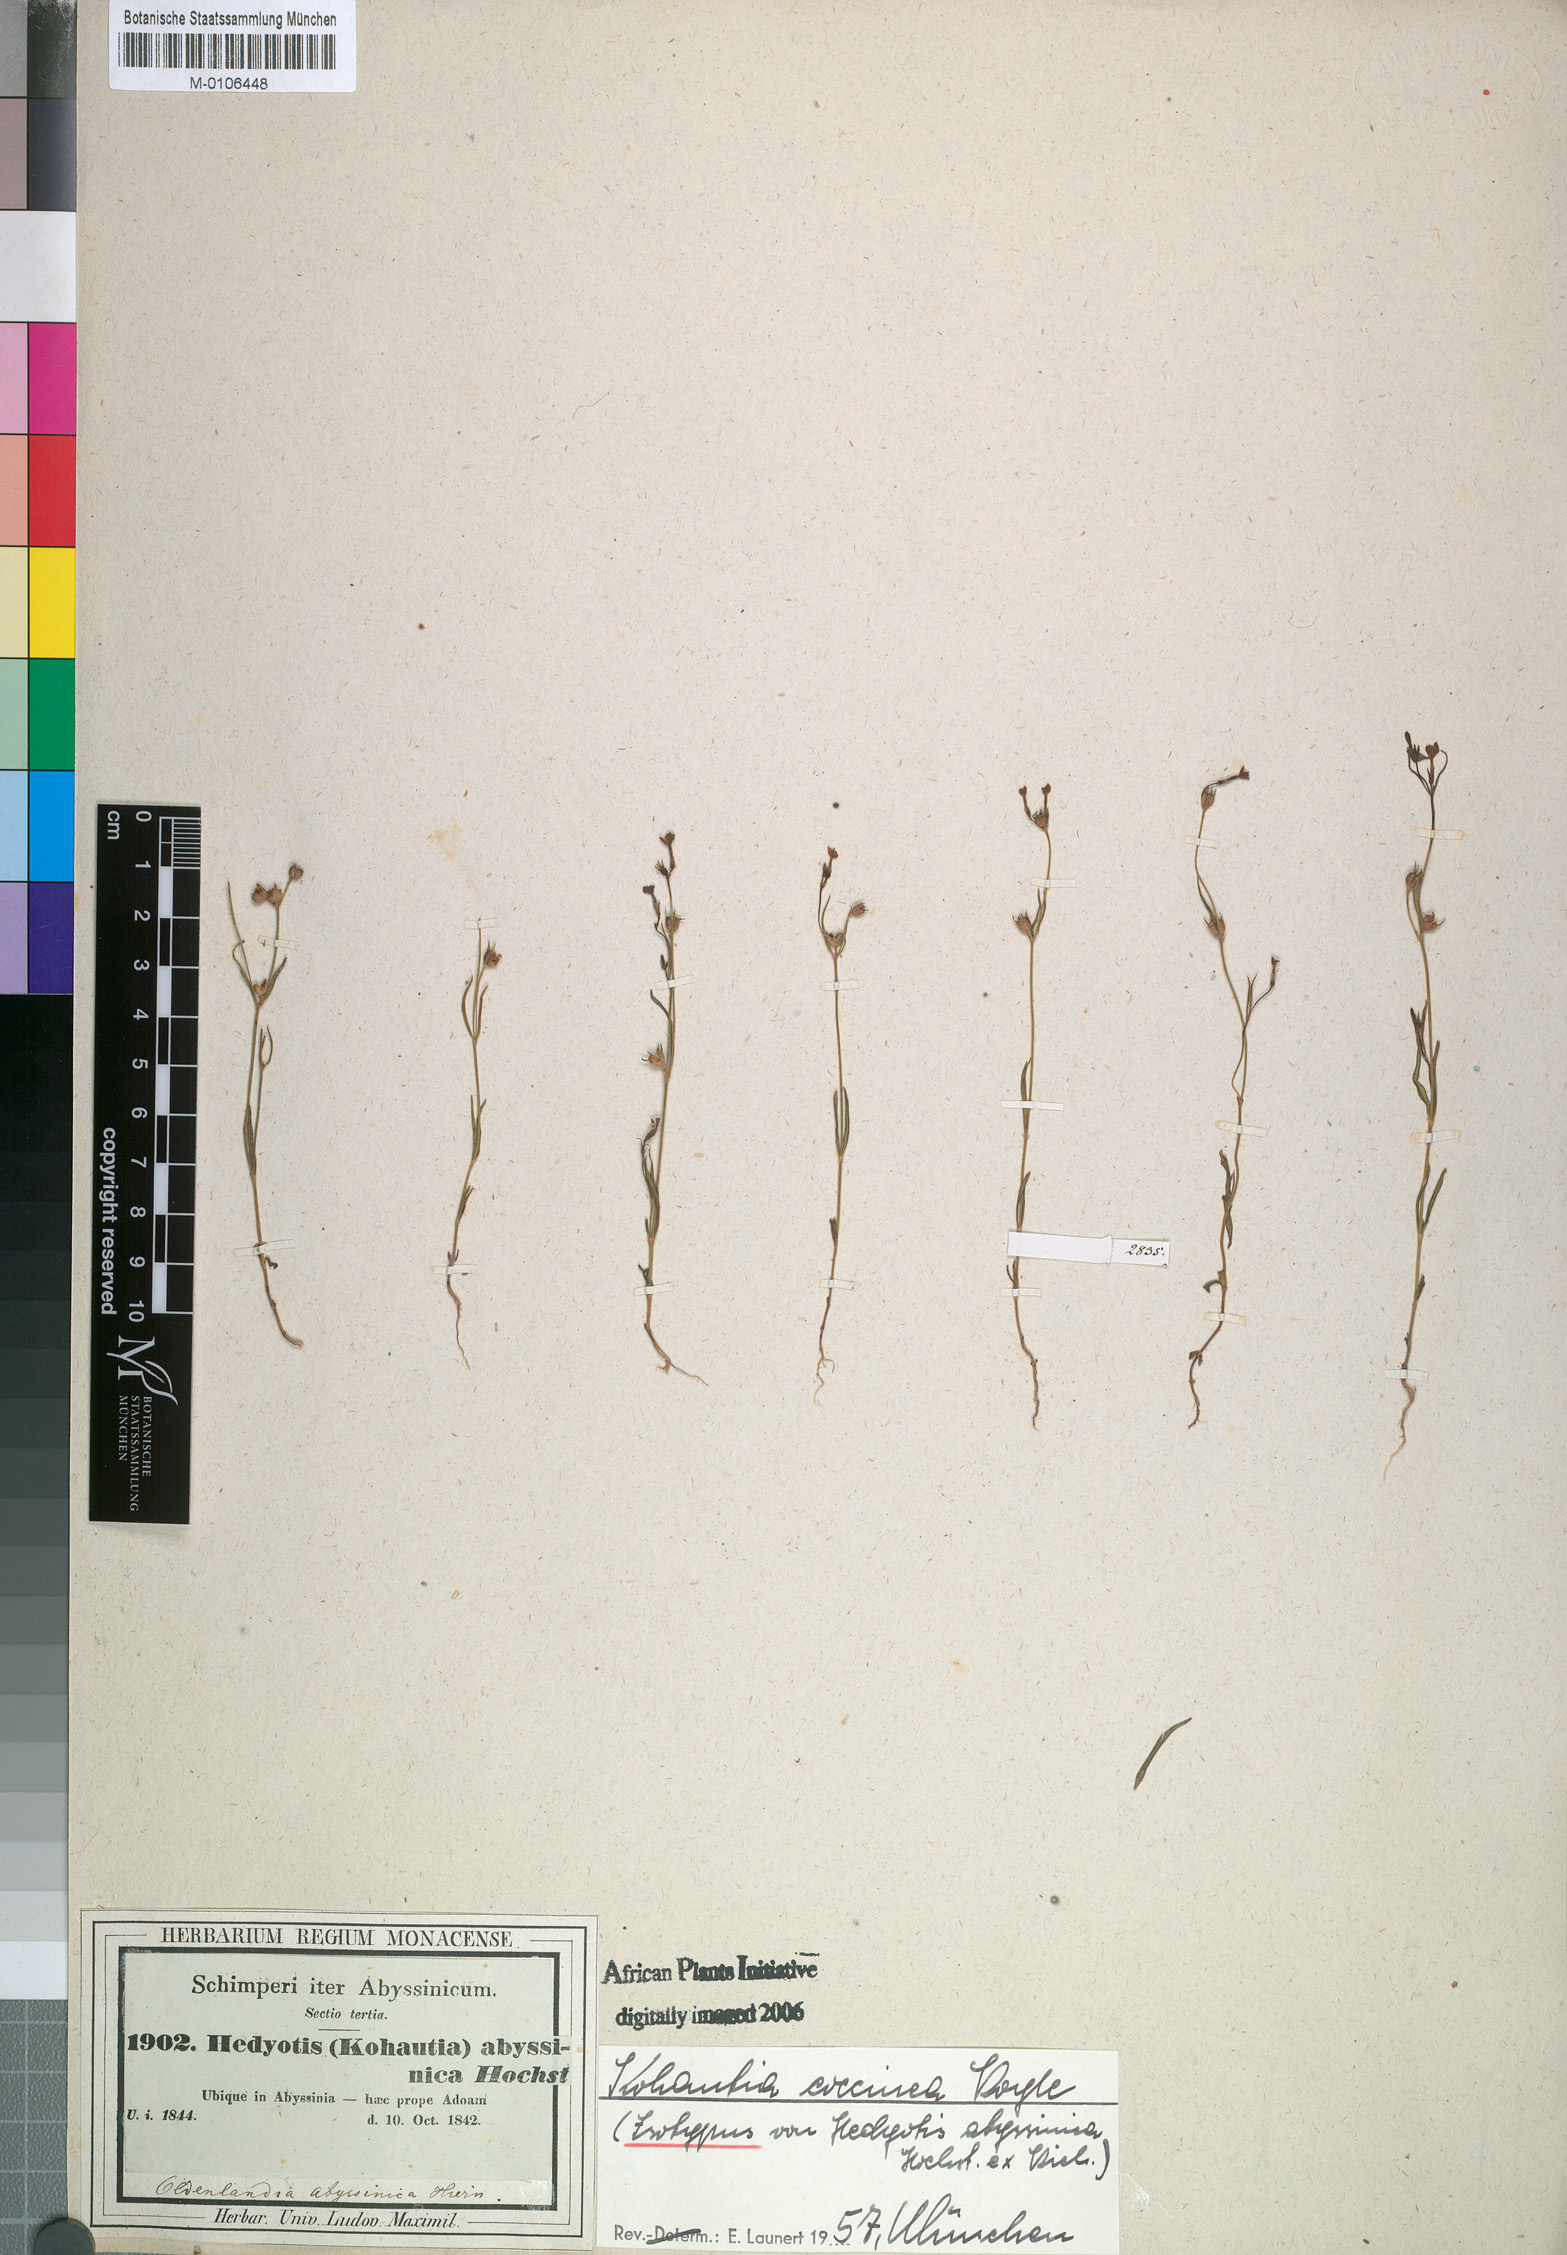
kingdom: Plantae
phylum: Tracheophyta
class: Magnoliopsida
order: Gentianales
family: Rubiaceae
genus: Kohautia
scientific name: Kohautia coccinea
